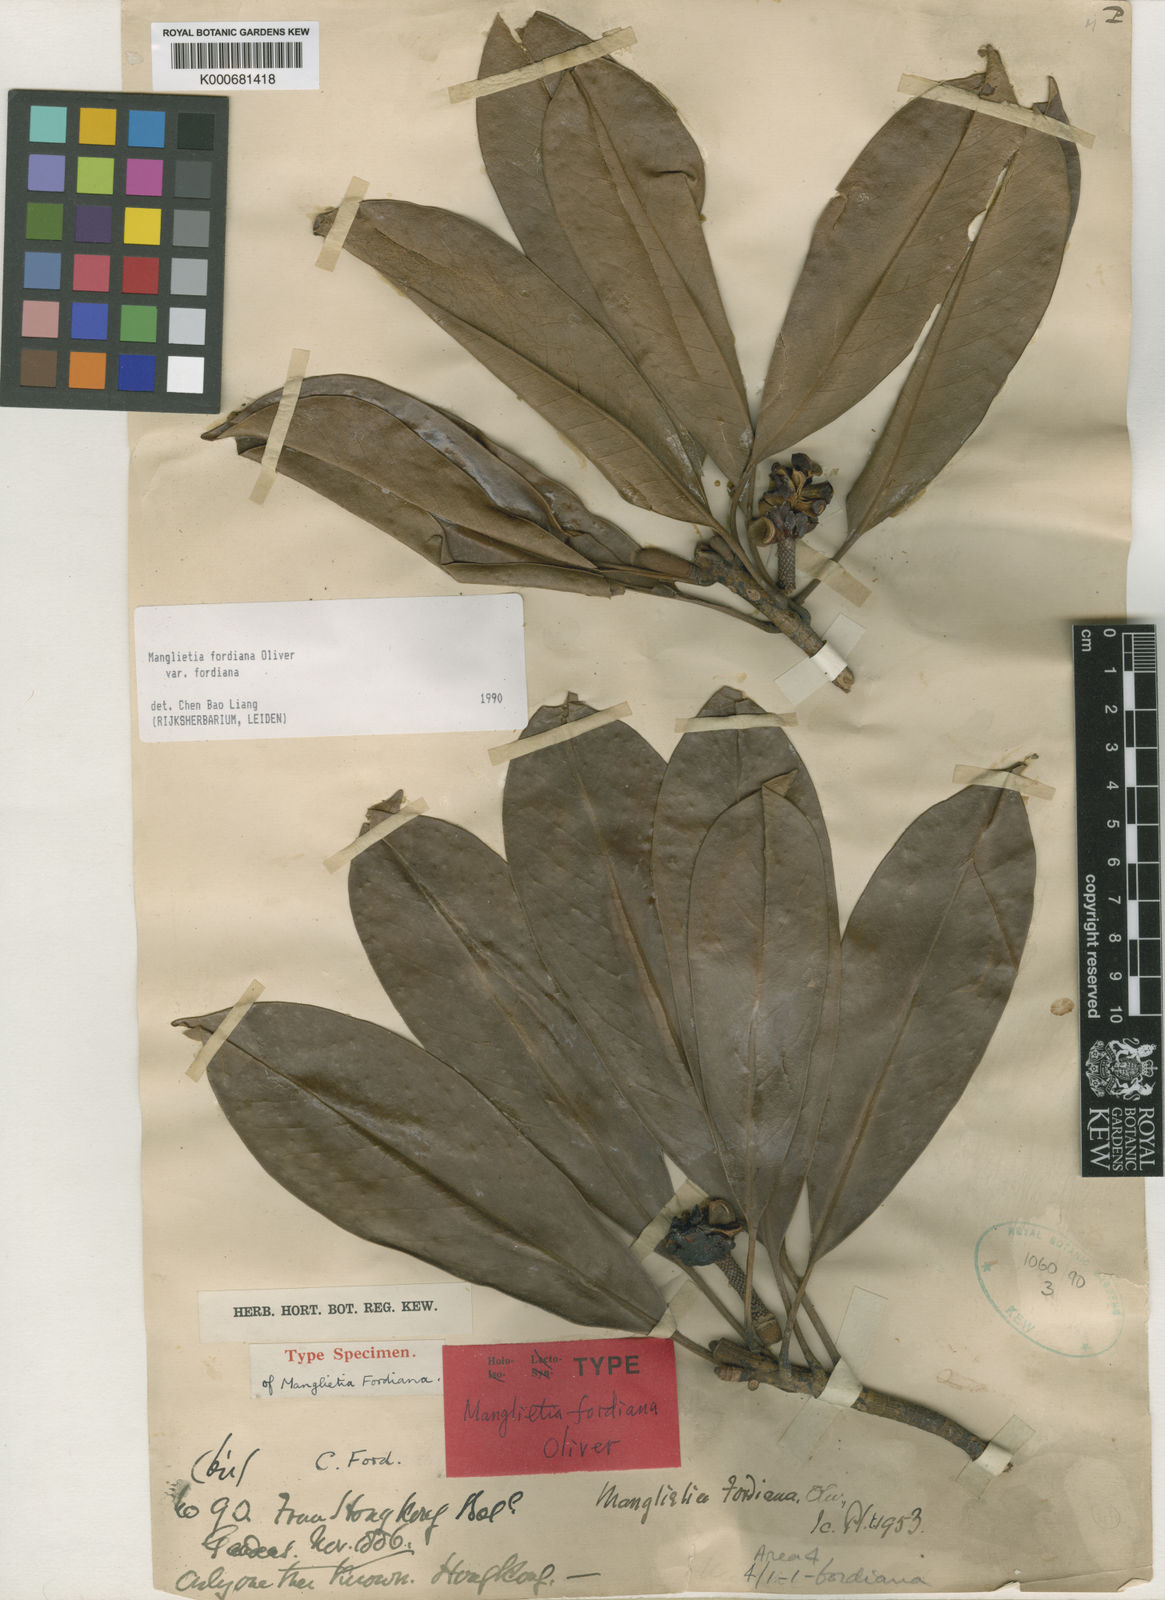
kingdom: Plantae
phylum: Tracheophyta
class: Magnoliopsida
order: Magnoliales
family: Magnoliaceae
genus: Magnolia
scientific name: Magnolia fordiana
